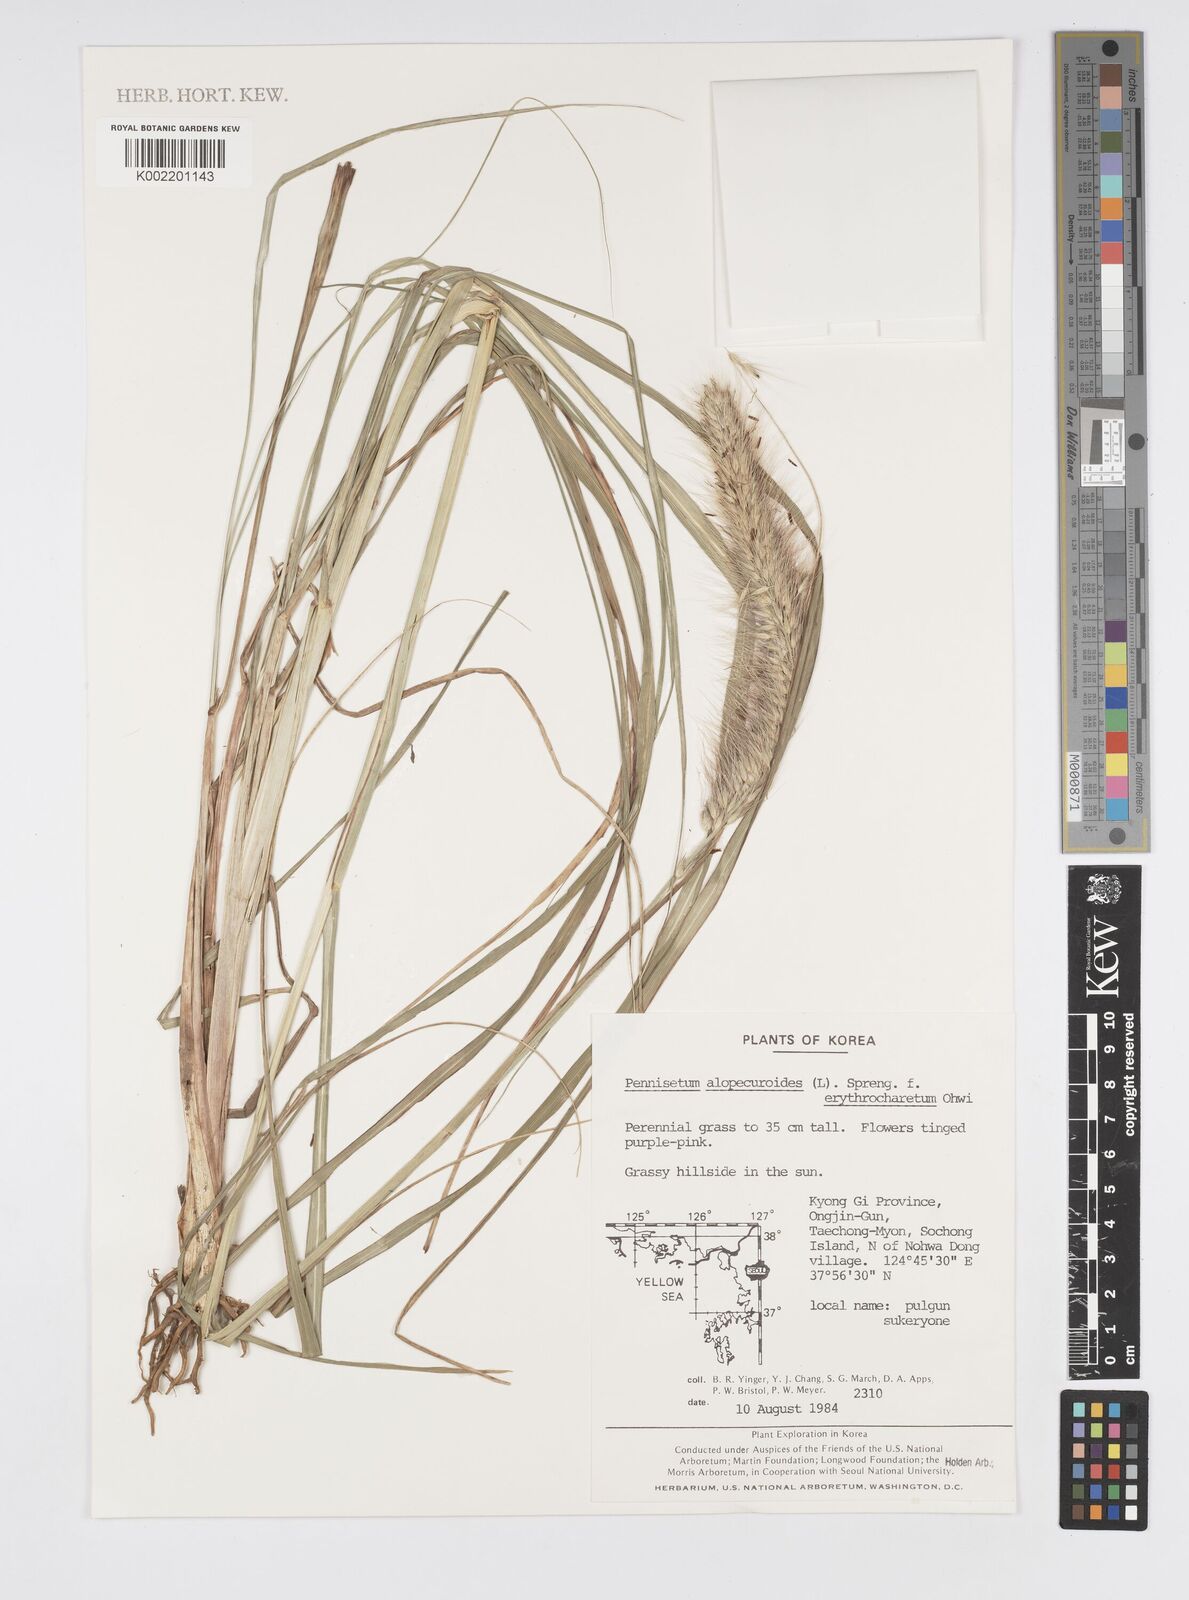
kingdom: Plantae
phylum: Tracheophyta
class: Liliopsida
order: Poales
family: Poaceae
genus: Cenchrus
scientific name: Cenchrus alopecuroides
